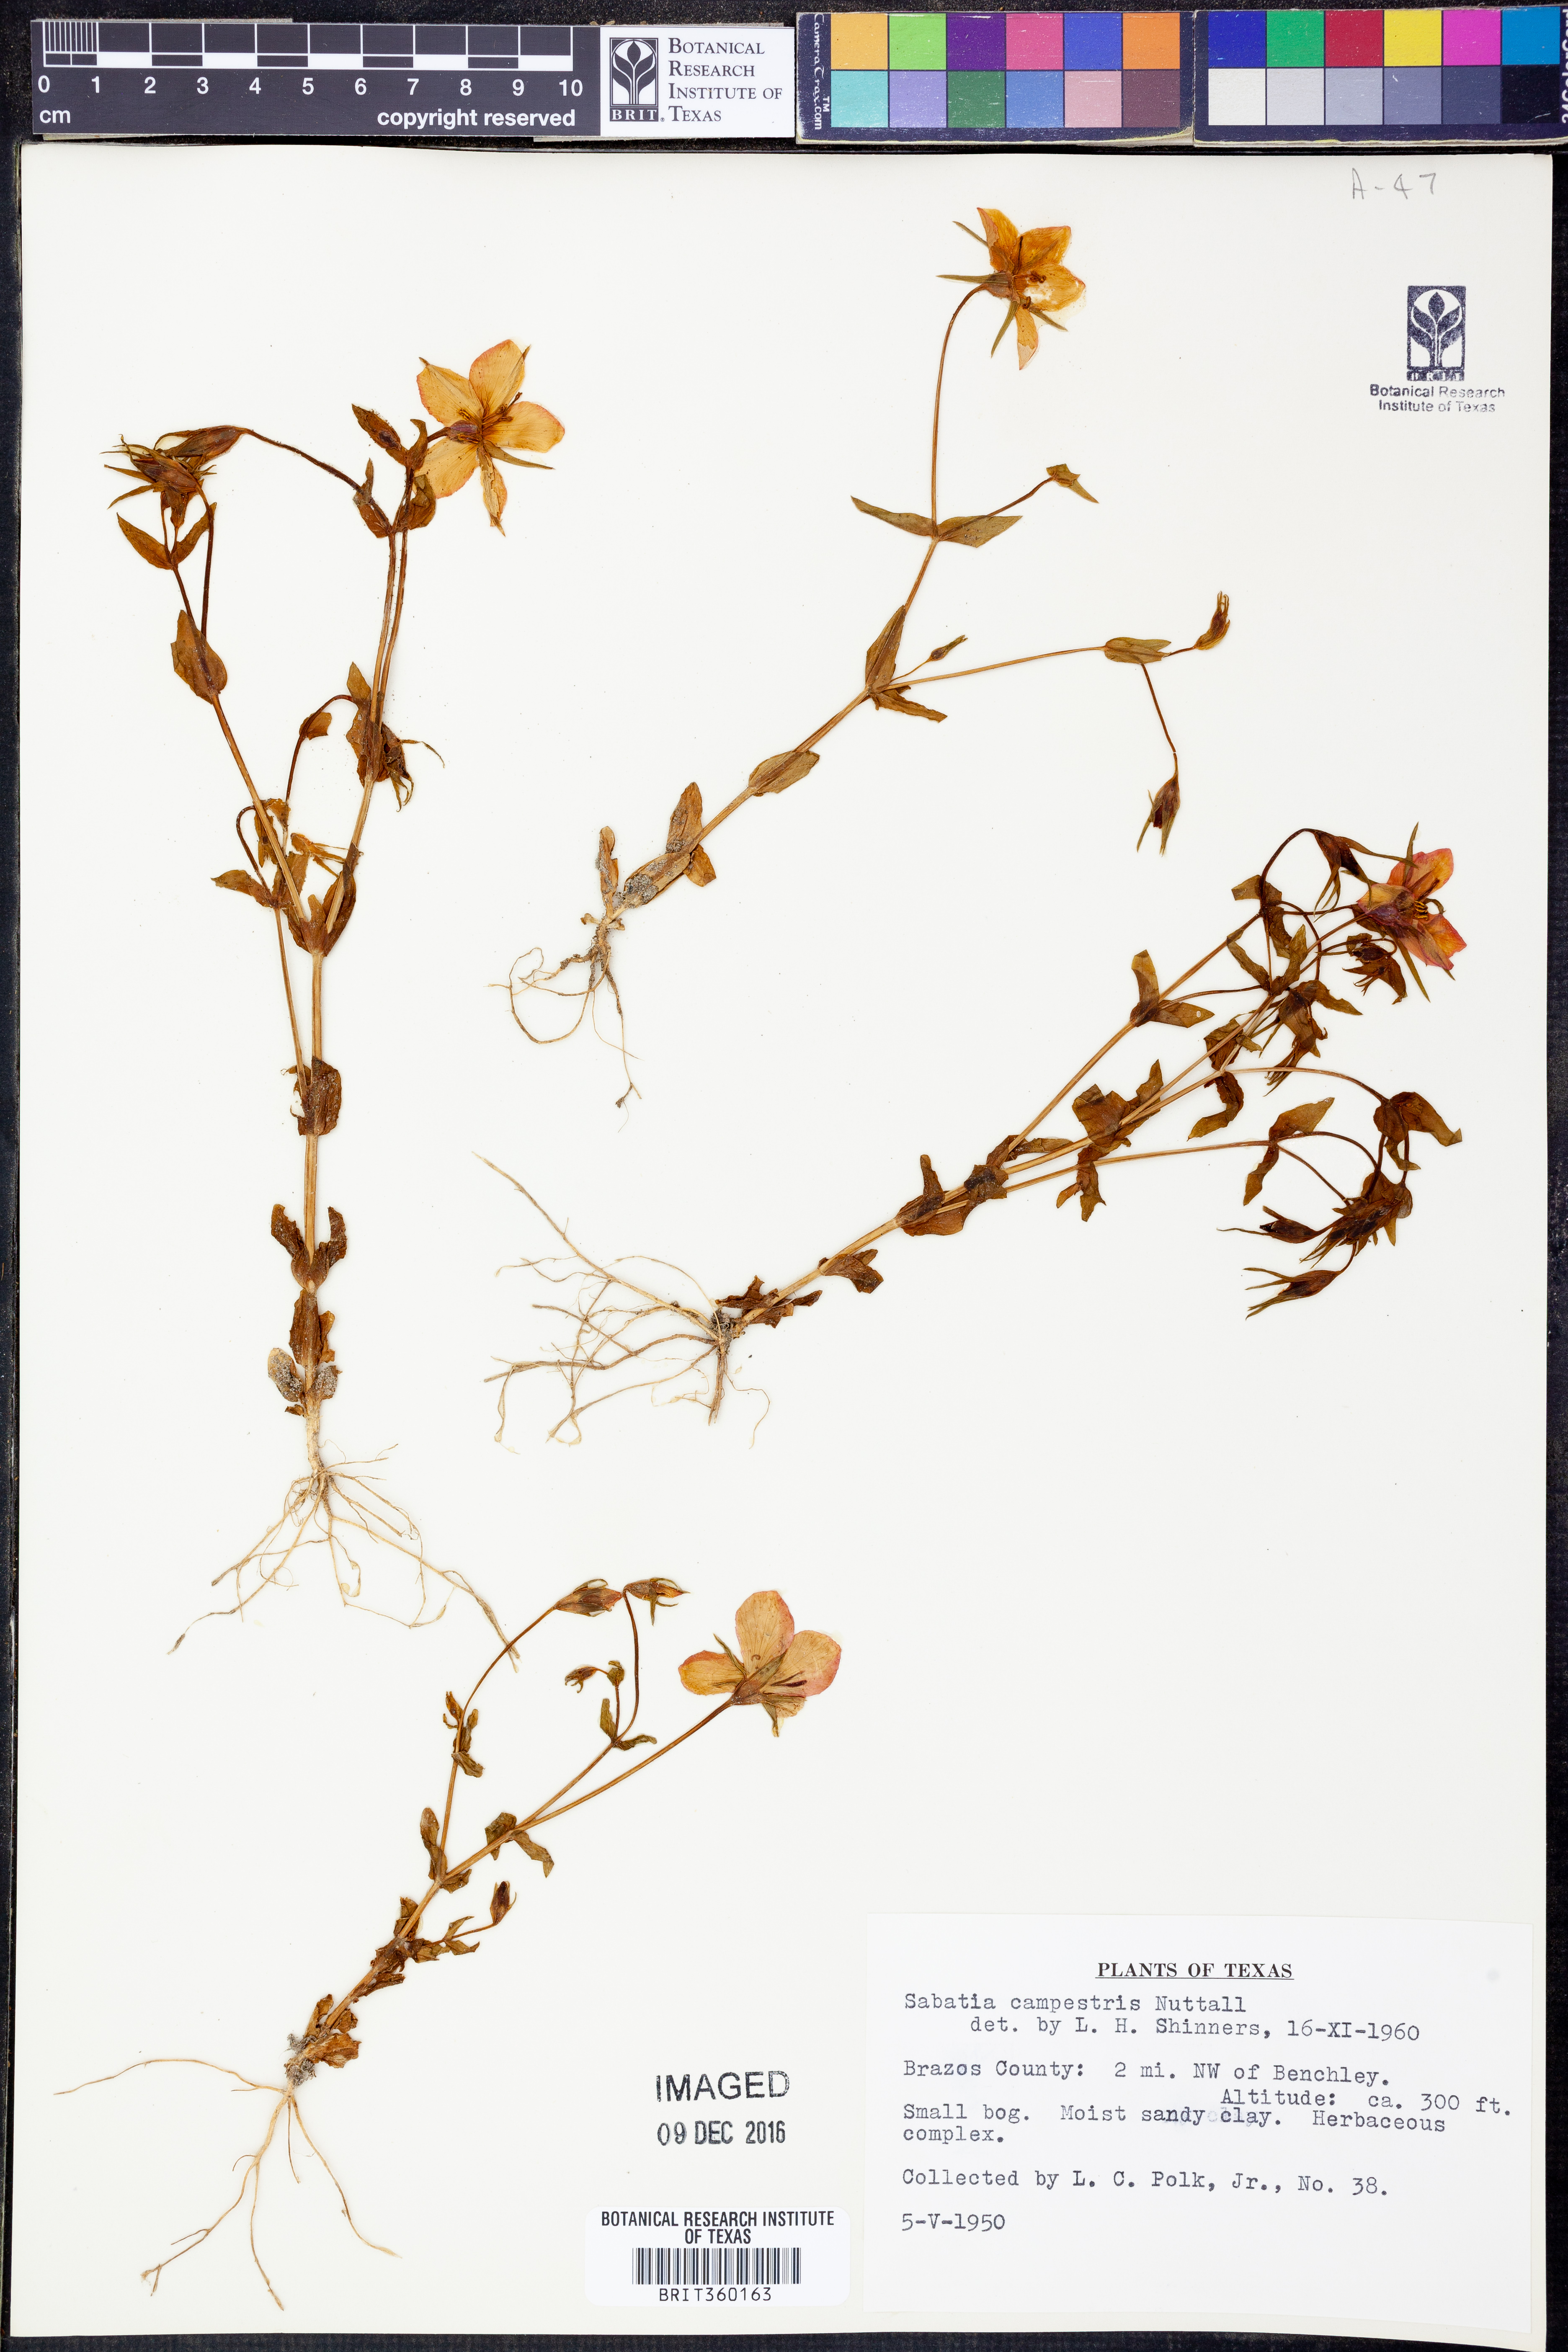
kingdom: Plantae
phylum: Tracheophyta
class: Magnoliopsida
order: Gentianales
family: Gentianaceae
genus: Sabatia
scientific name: Sabatia campestris
